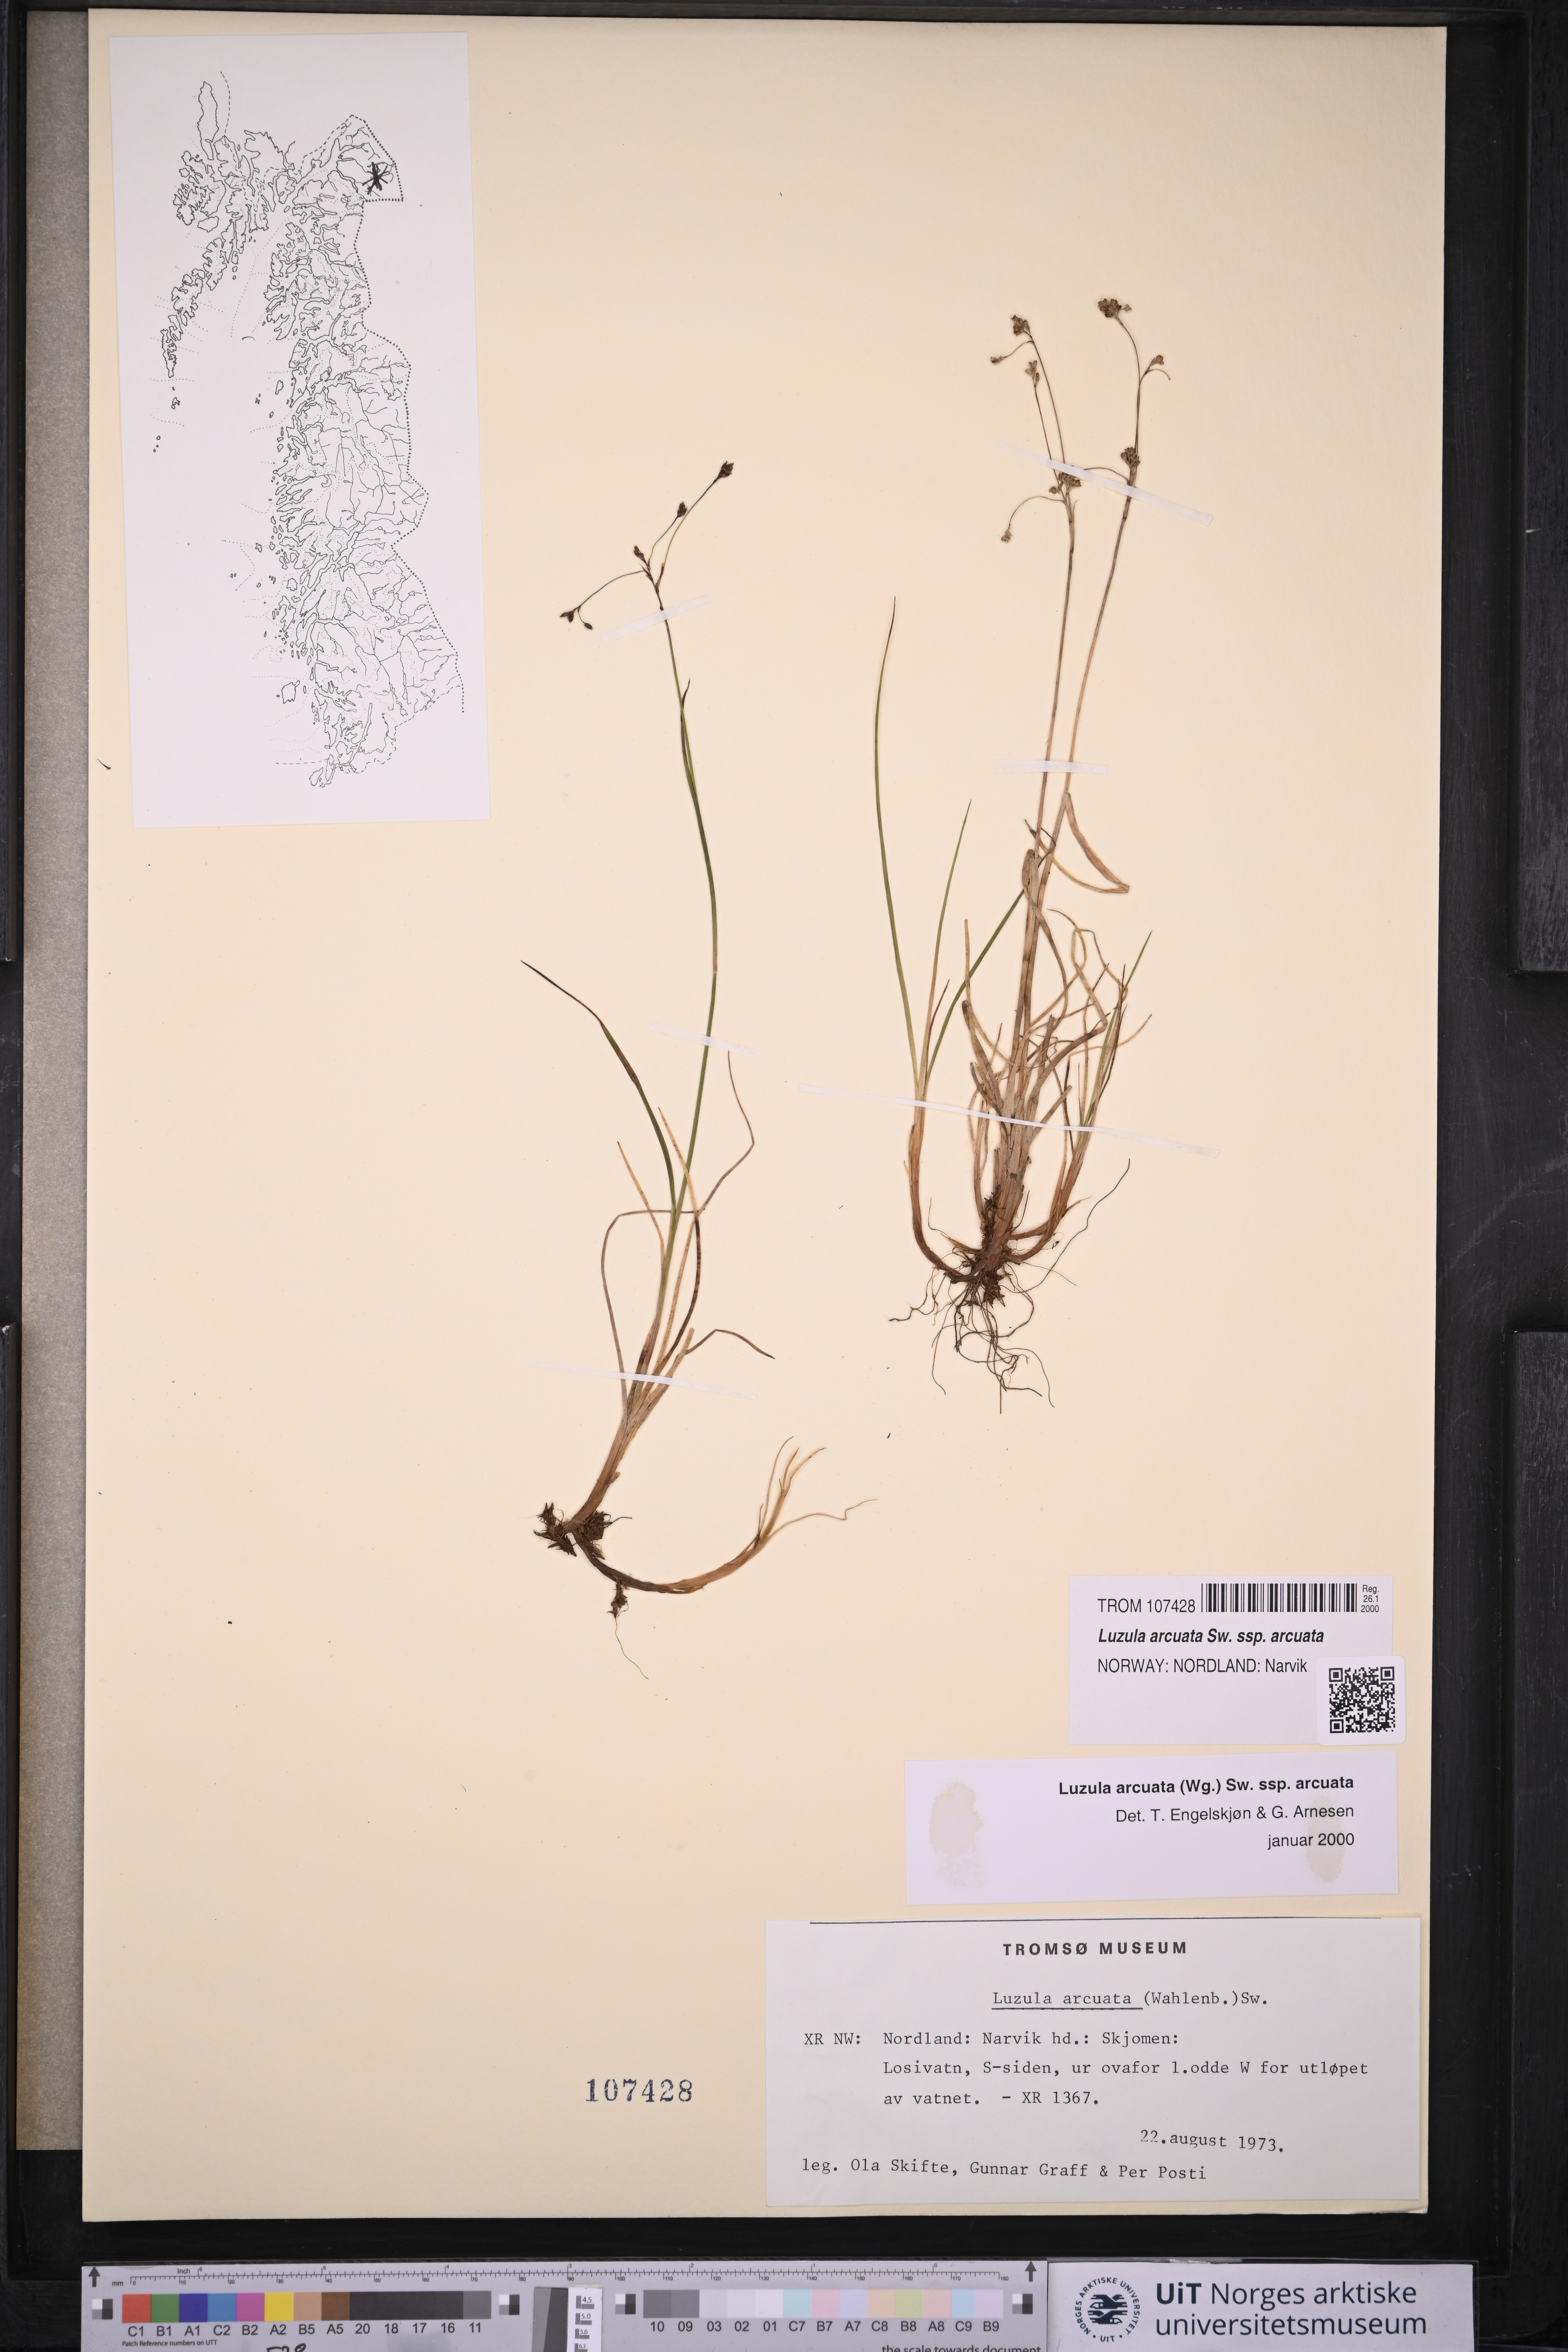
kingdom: Plantae
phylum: Tracheophyta
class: Liliopsida
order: Poales
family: Juncaceae
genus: Luzula
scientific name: Luzula arcuata
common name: Curved wood-rush
